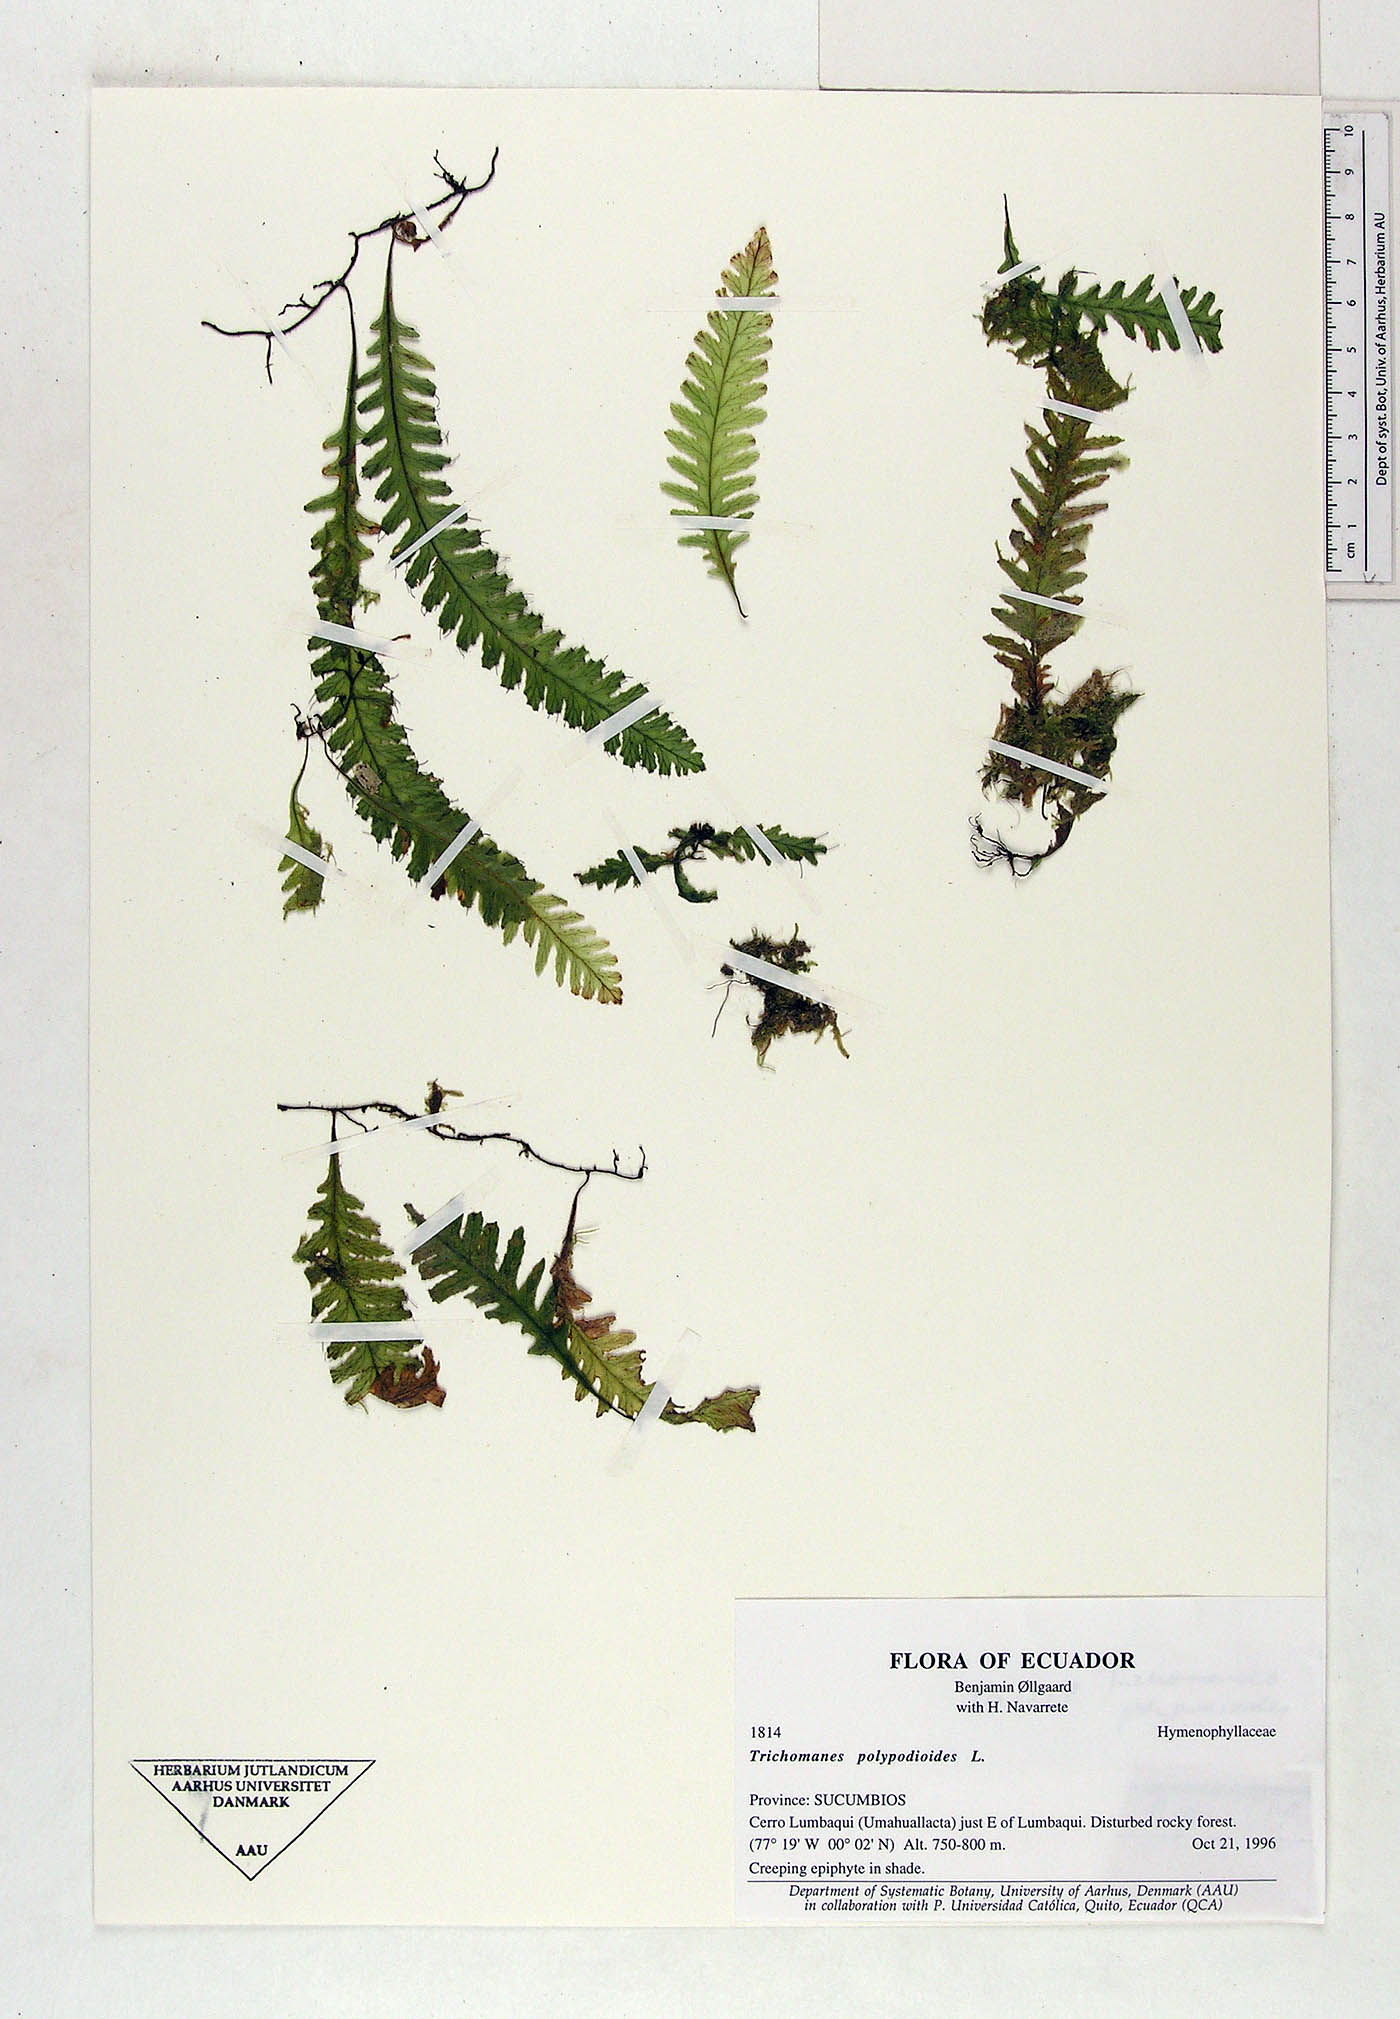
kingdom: Plantae
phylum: Tracheophyta
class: Polypodiopsida
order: Hymenophyllales
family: Hymenophyllaceae
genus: Trichomanes
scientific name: Trichomanes polypodioides
